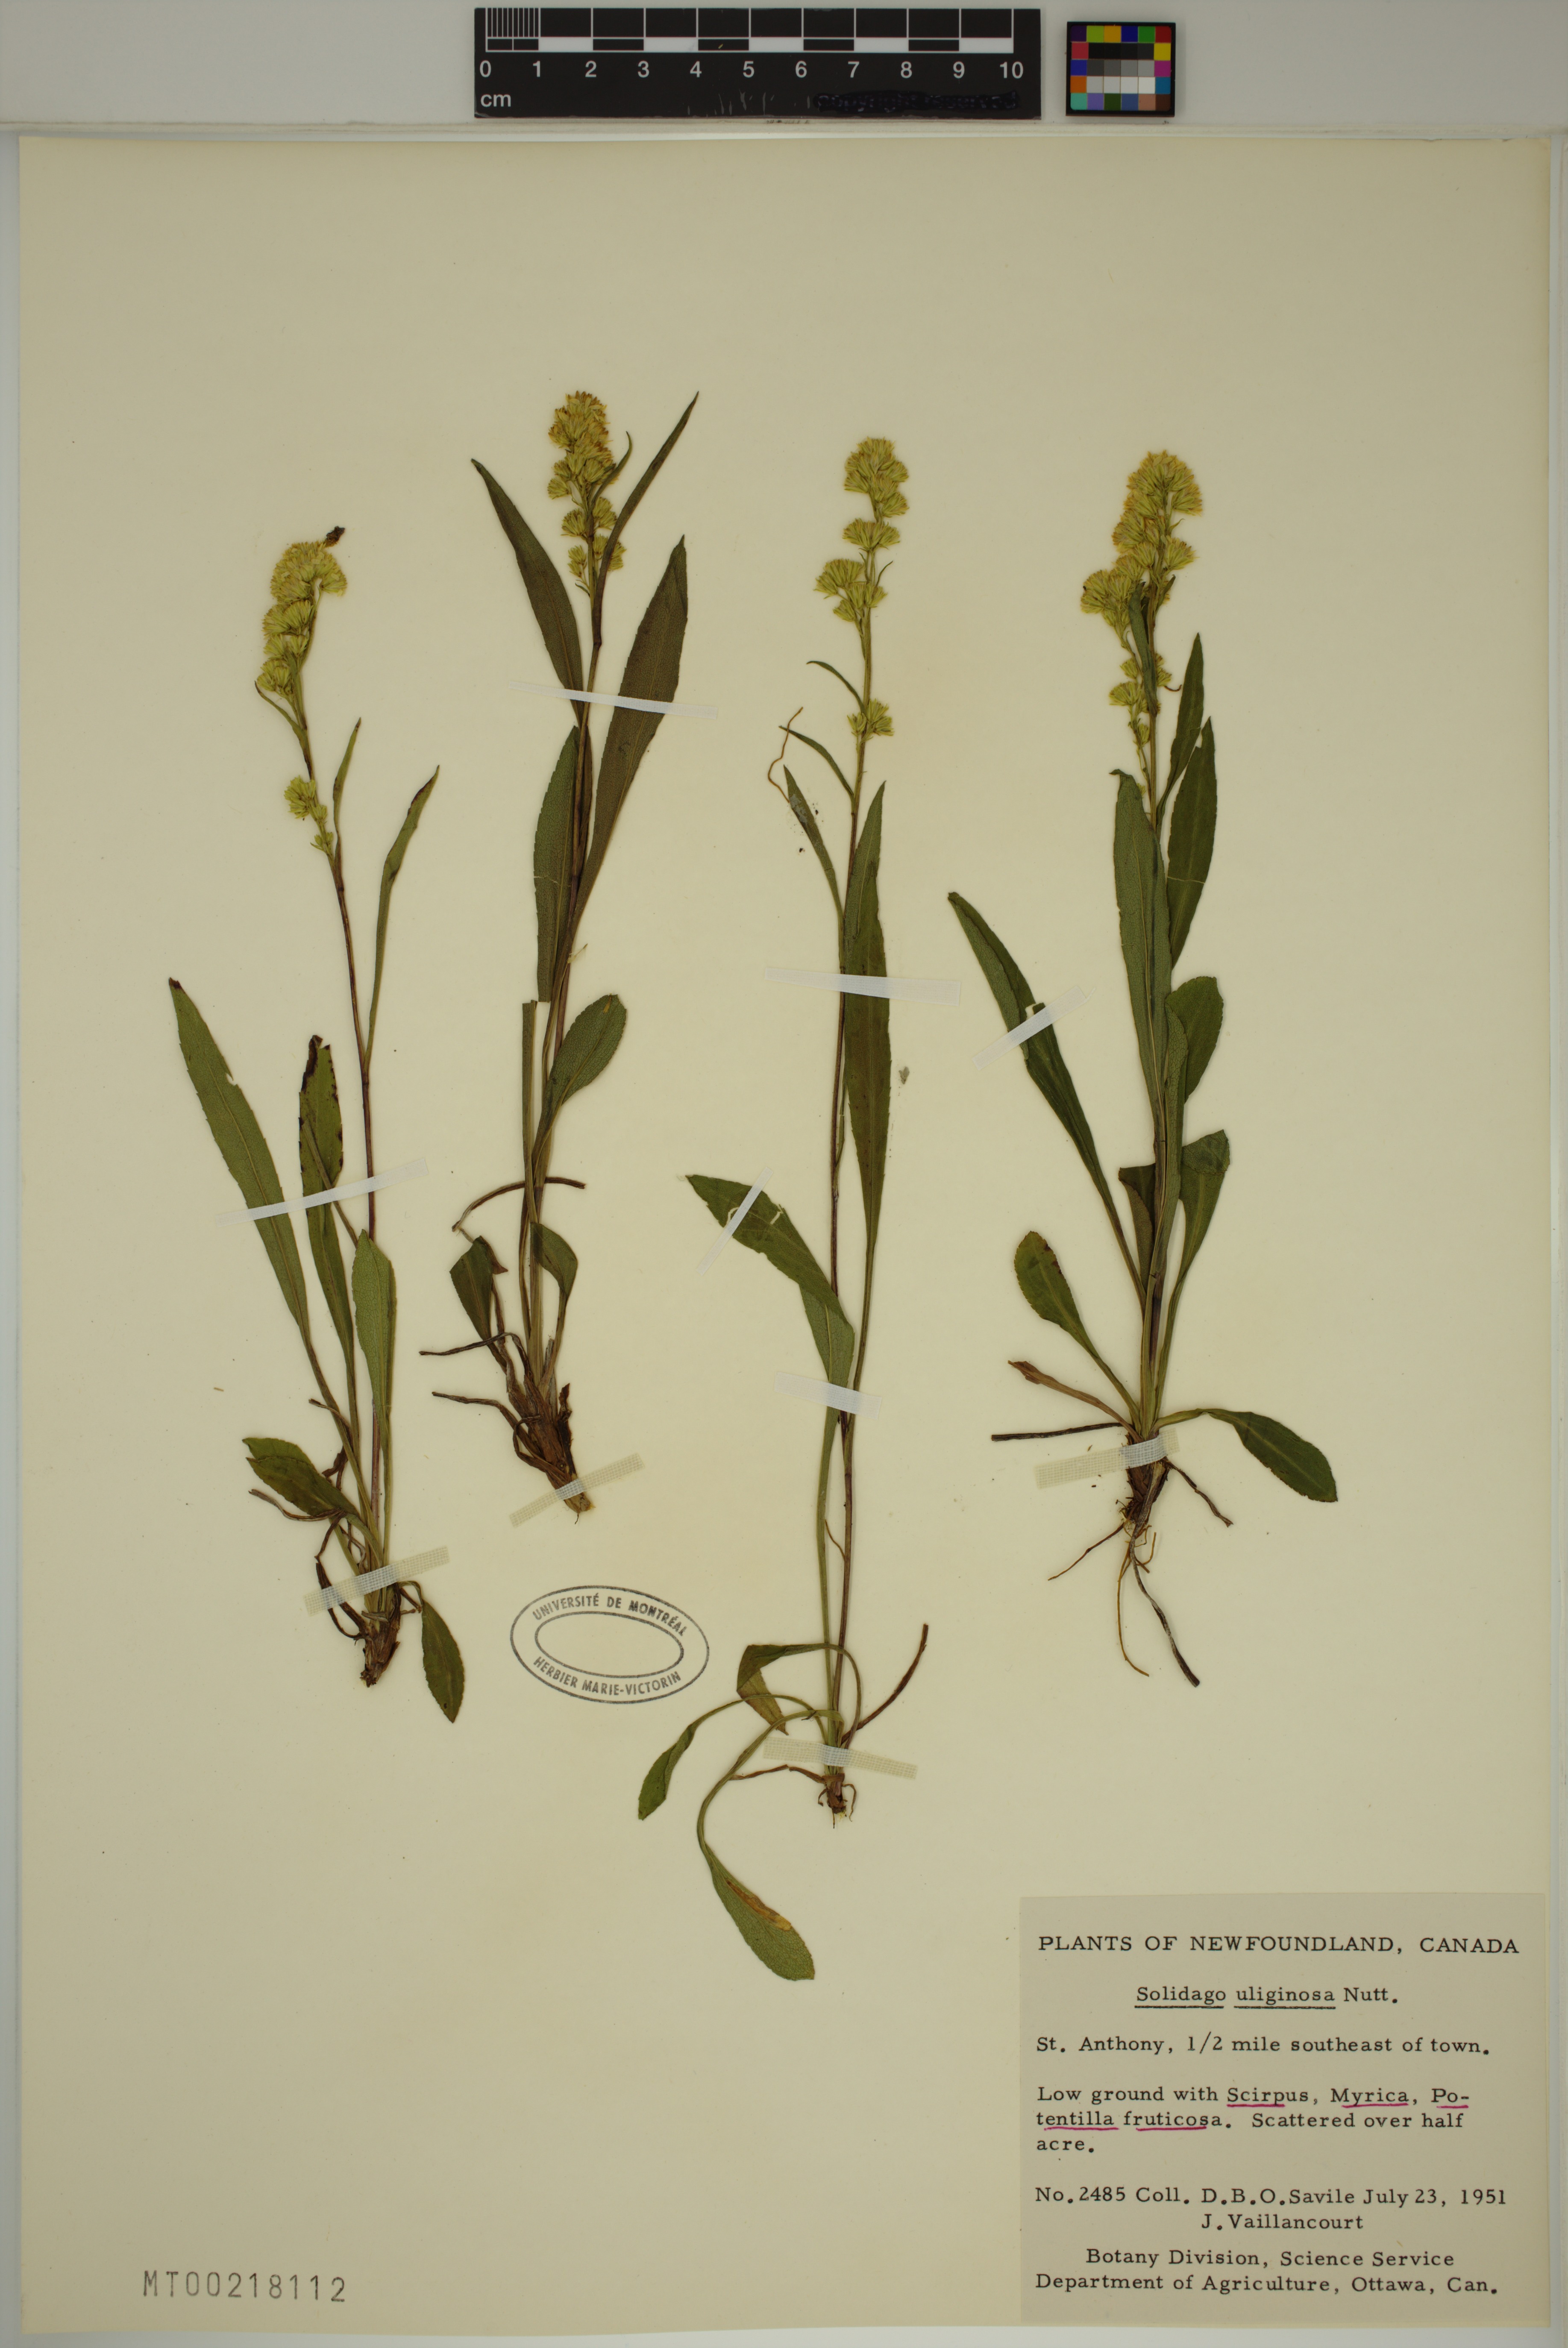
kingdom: Plantae
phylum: Tracheophyta
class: Magnoliopsida
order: Asterales
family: Asteraceae
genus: Solidago
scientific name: Solidago uliginosa
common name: Bog goldenrod
